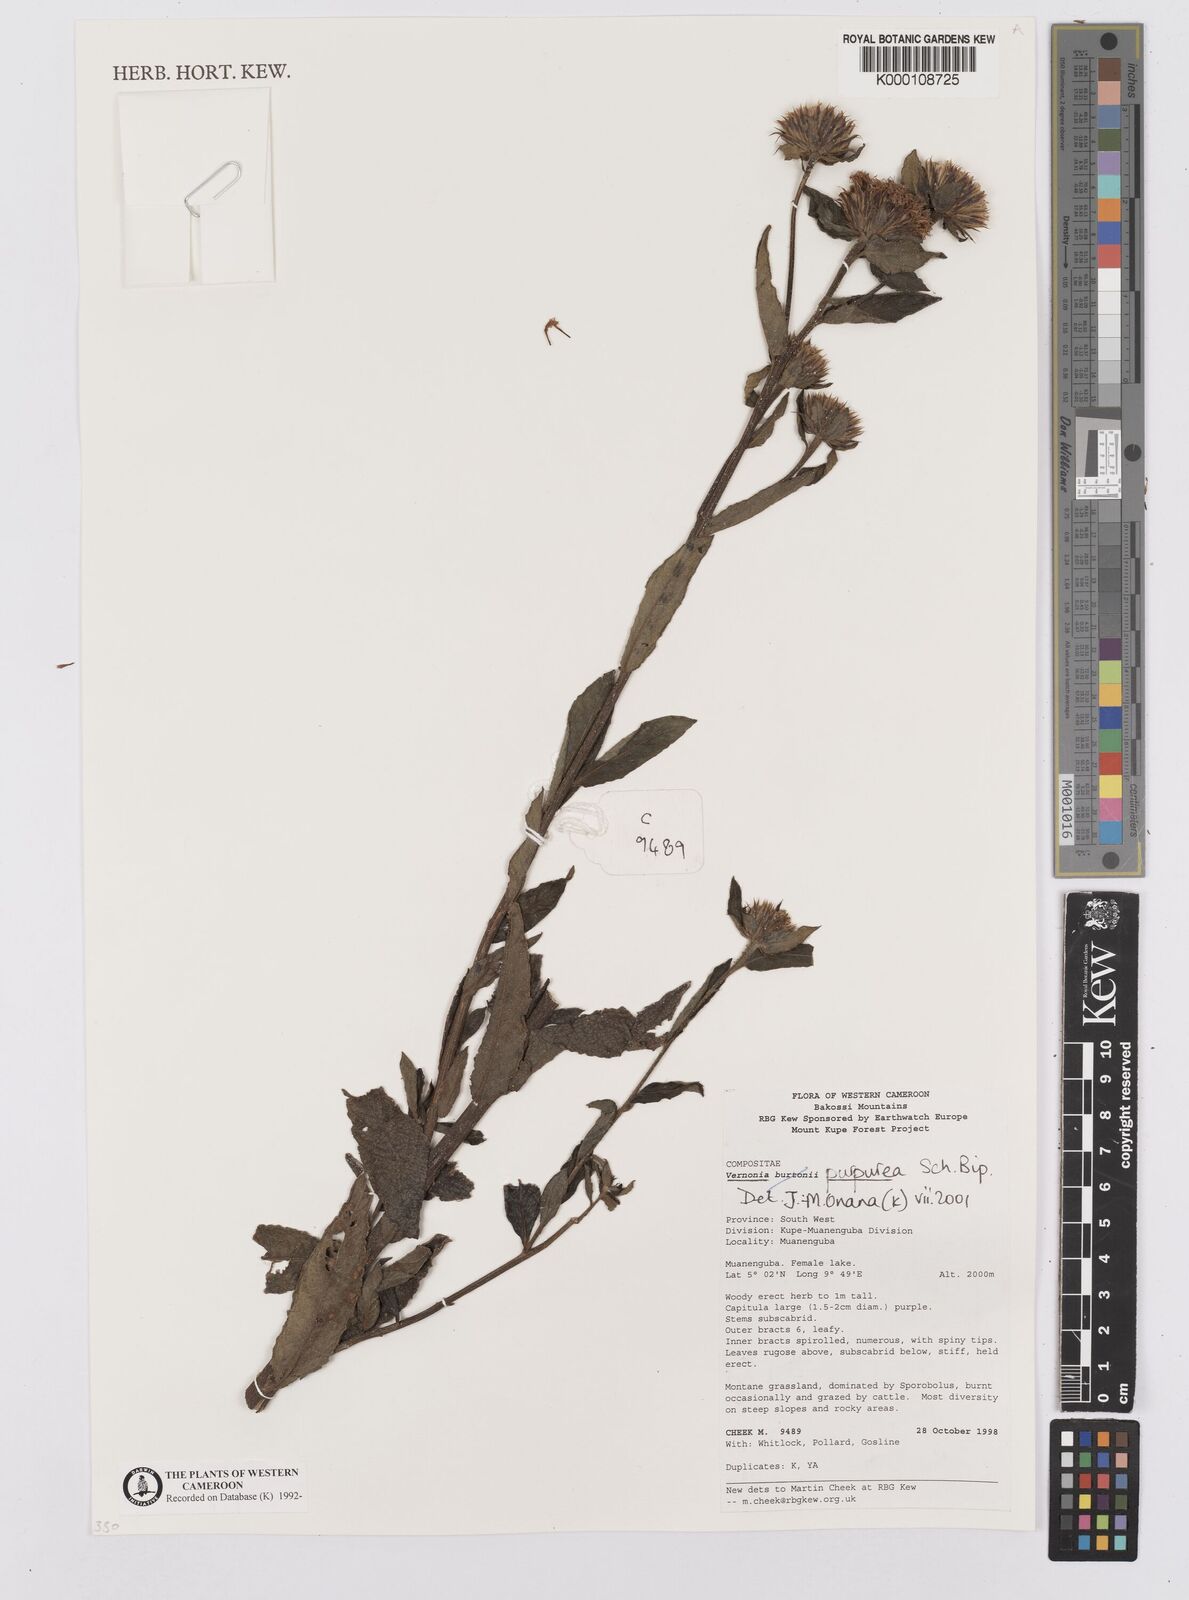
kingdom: Plantae
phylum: Tracheophyta
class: Magnoliopsida
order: Asterales
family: Asteraceae
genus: Vernonia
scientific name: Vernonia
